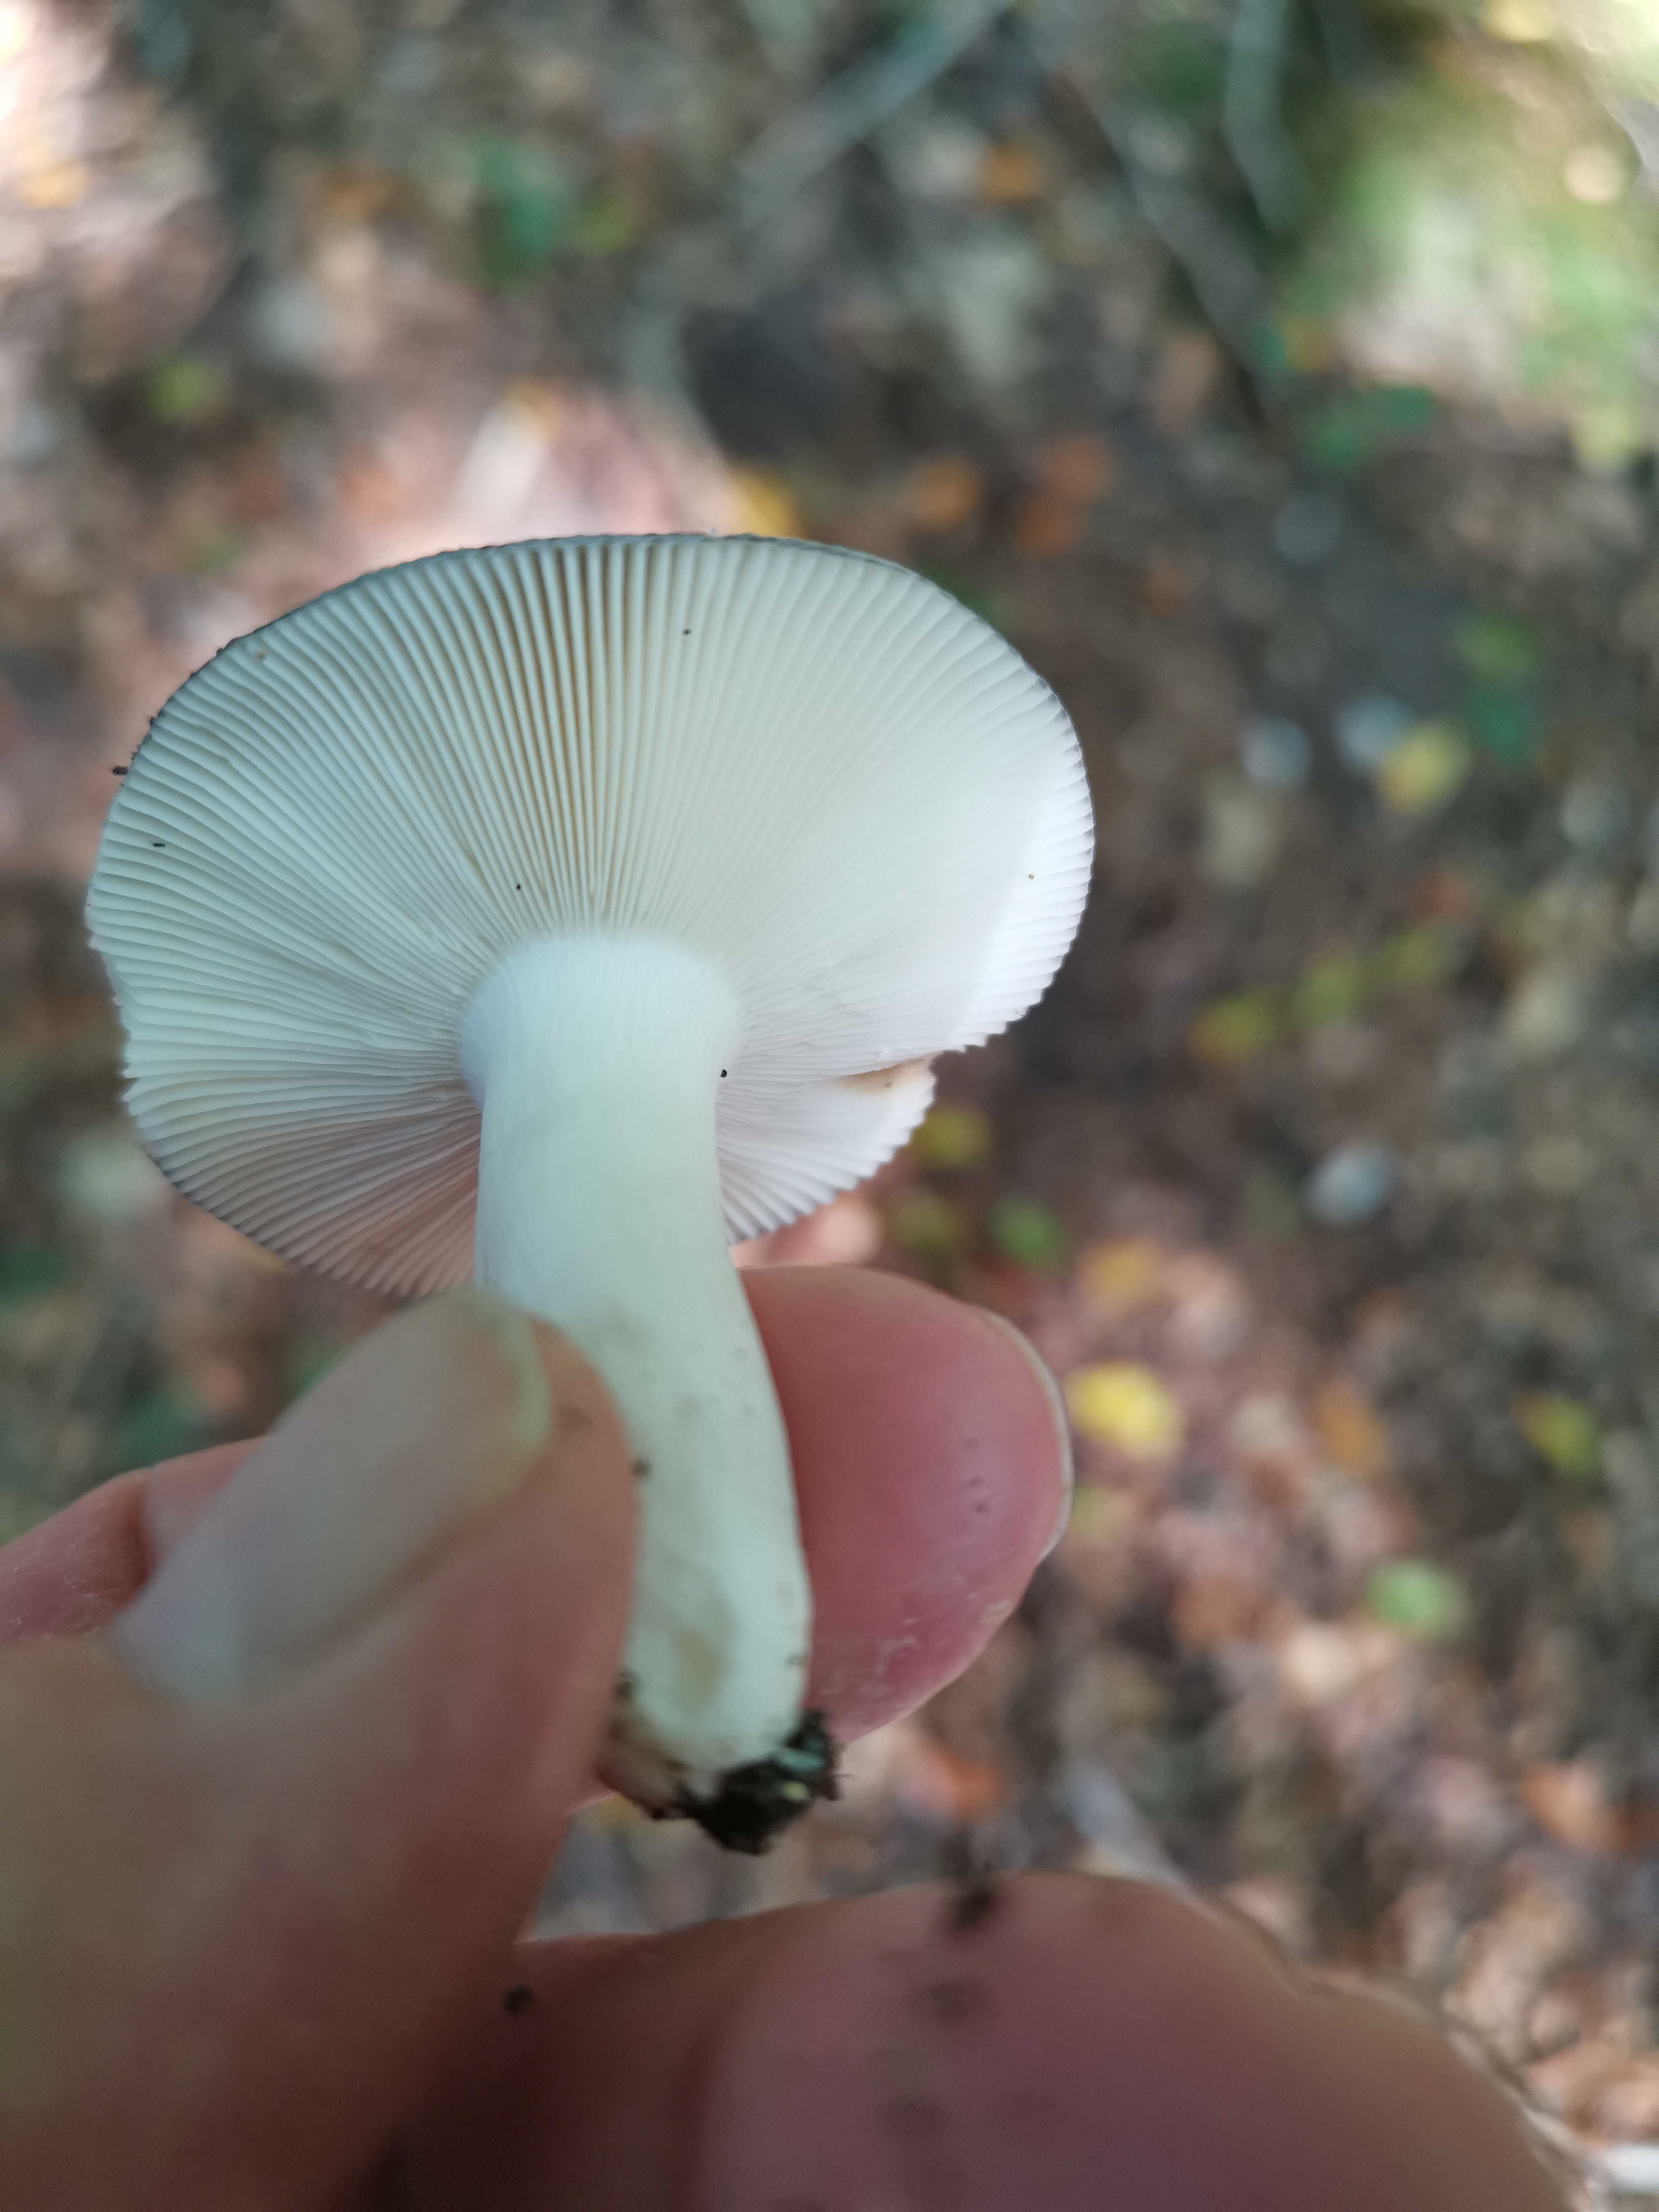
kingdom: Fungi
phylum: Basidiomycota
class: Agaricomycetes
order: Russulales
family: Russulaceae
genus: Russula
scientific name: Russula
